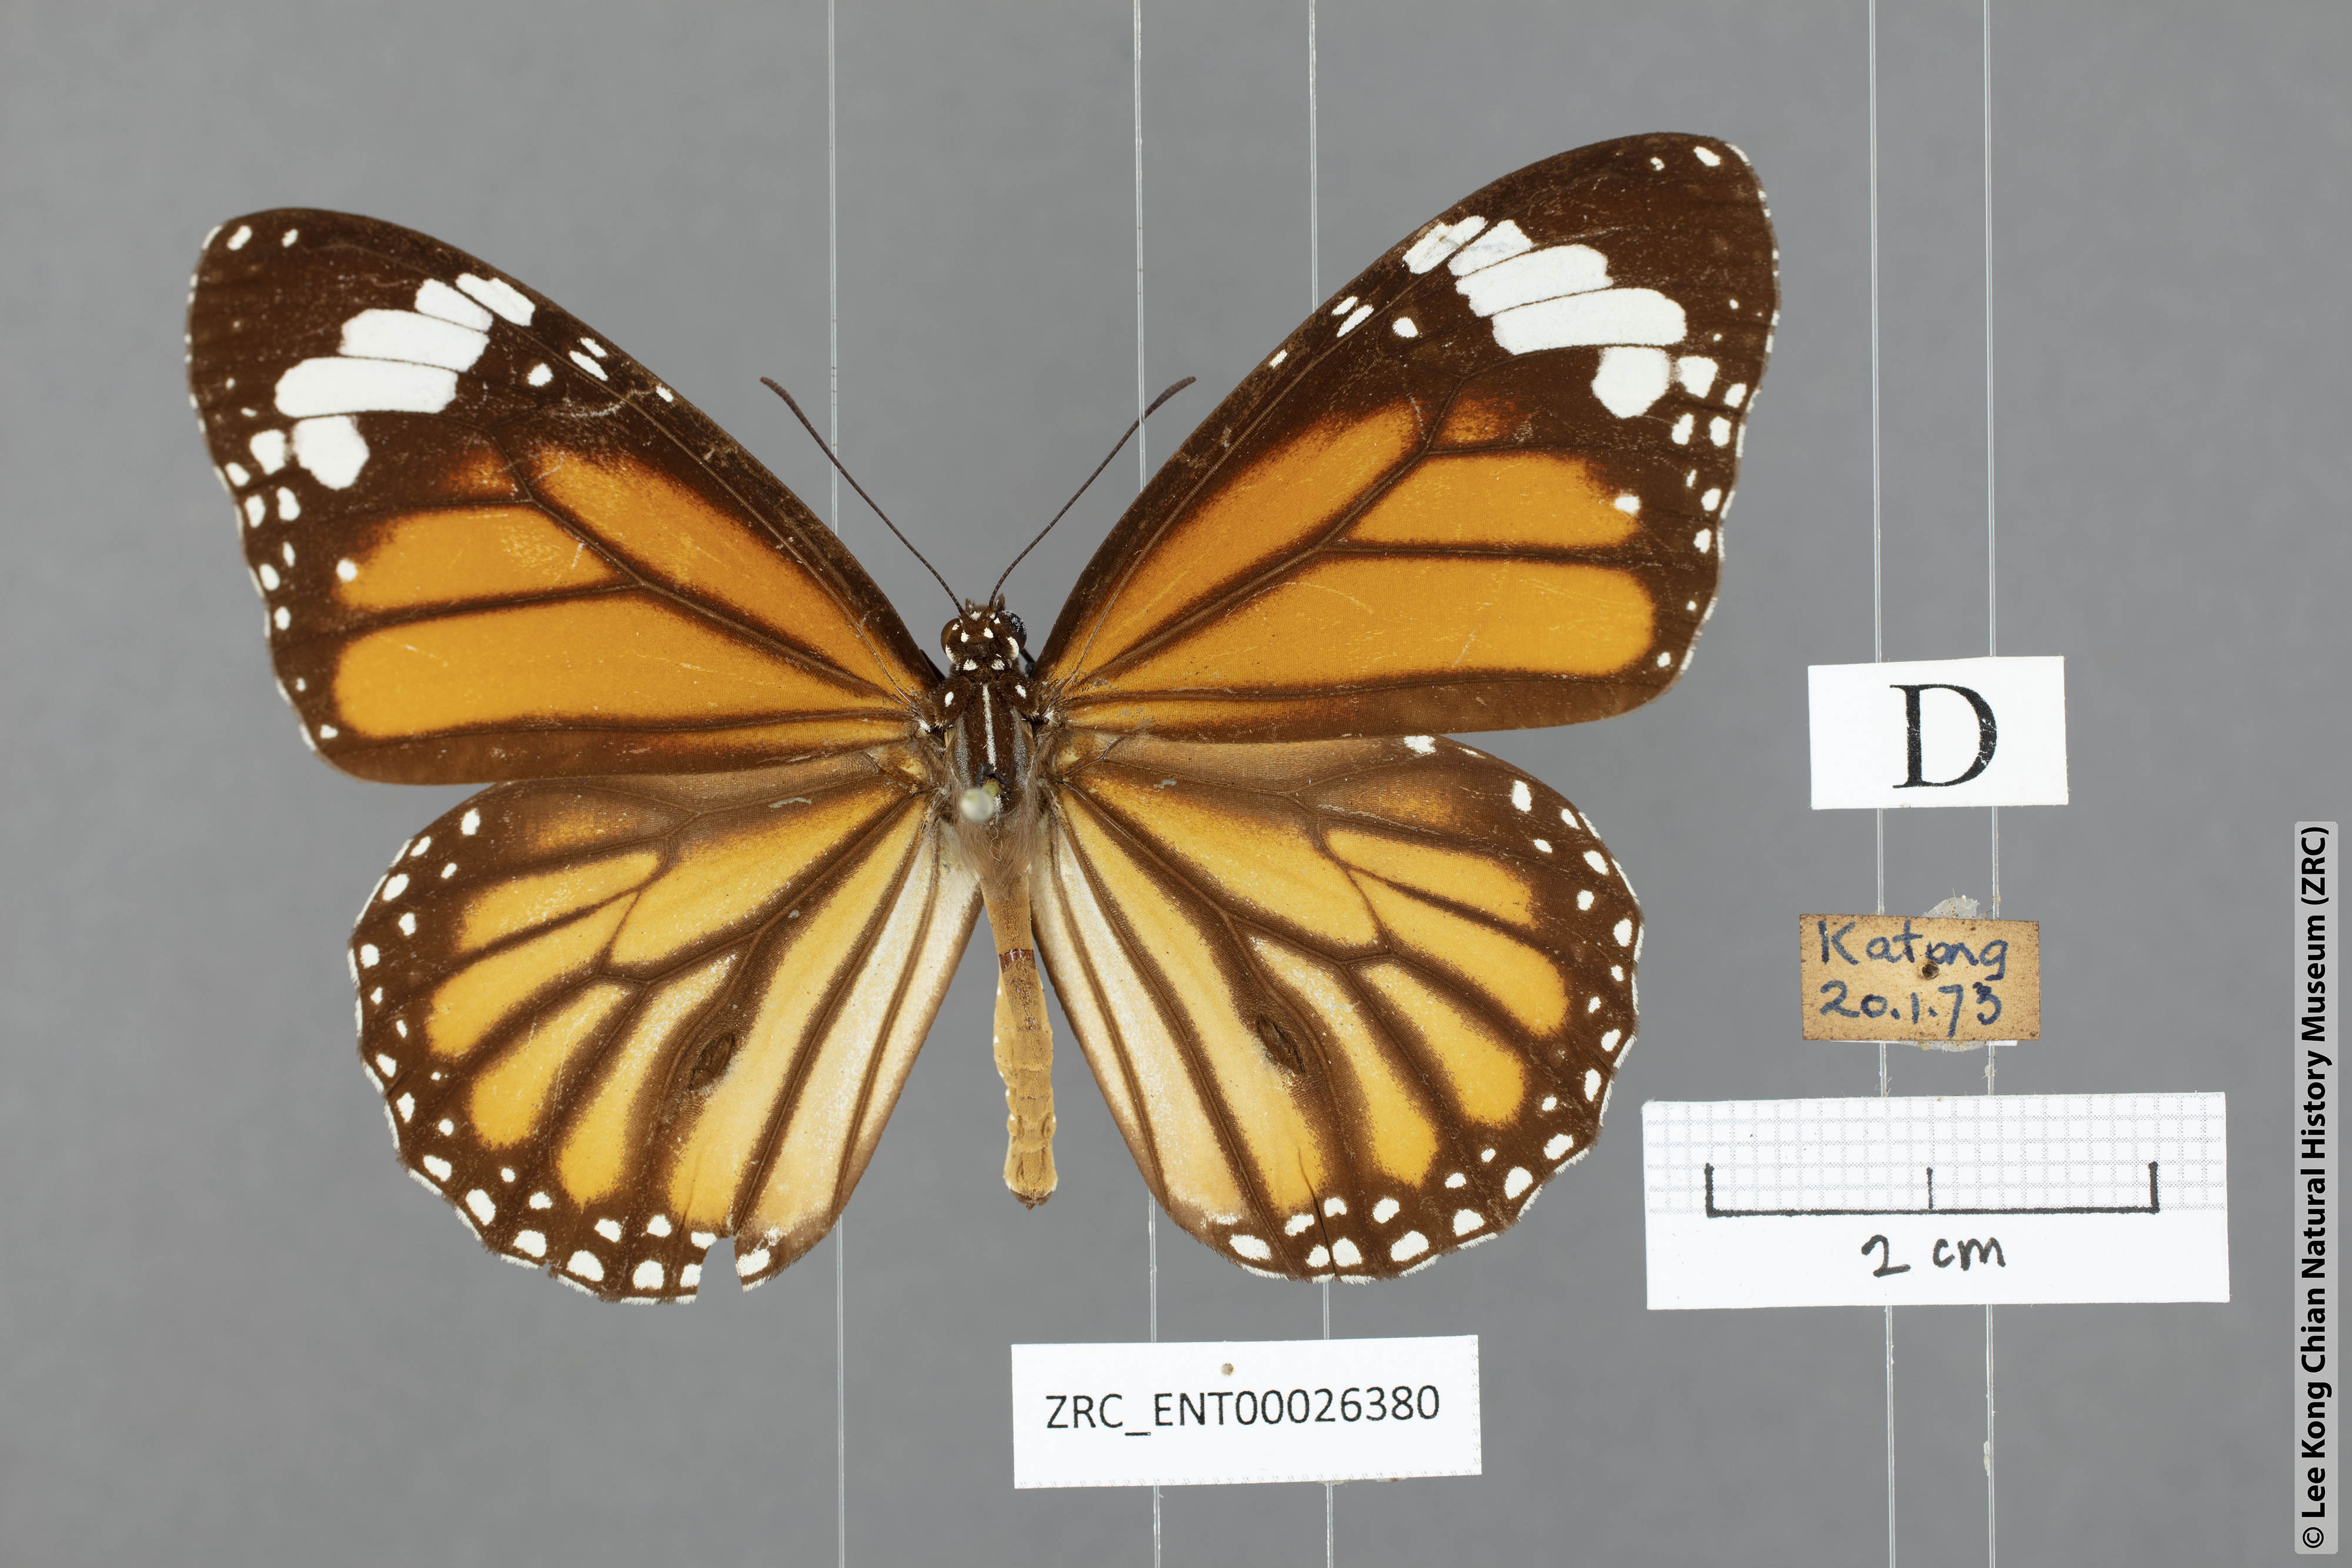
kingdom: Animalia
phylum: Arthropoda
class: Insecta
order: Lepidoptera
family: Nymphalidae
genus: Danaus
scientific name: Danaus genutia
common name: Common tiger butterfly
